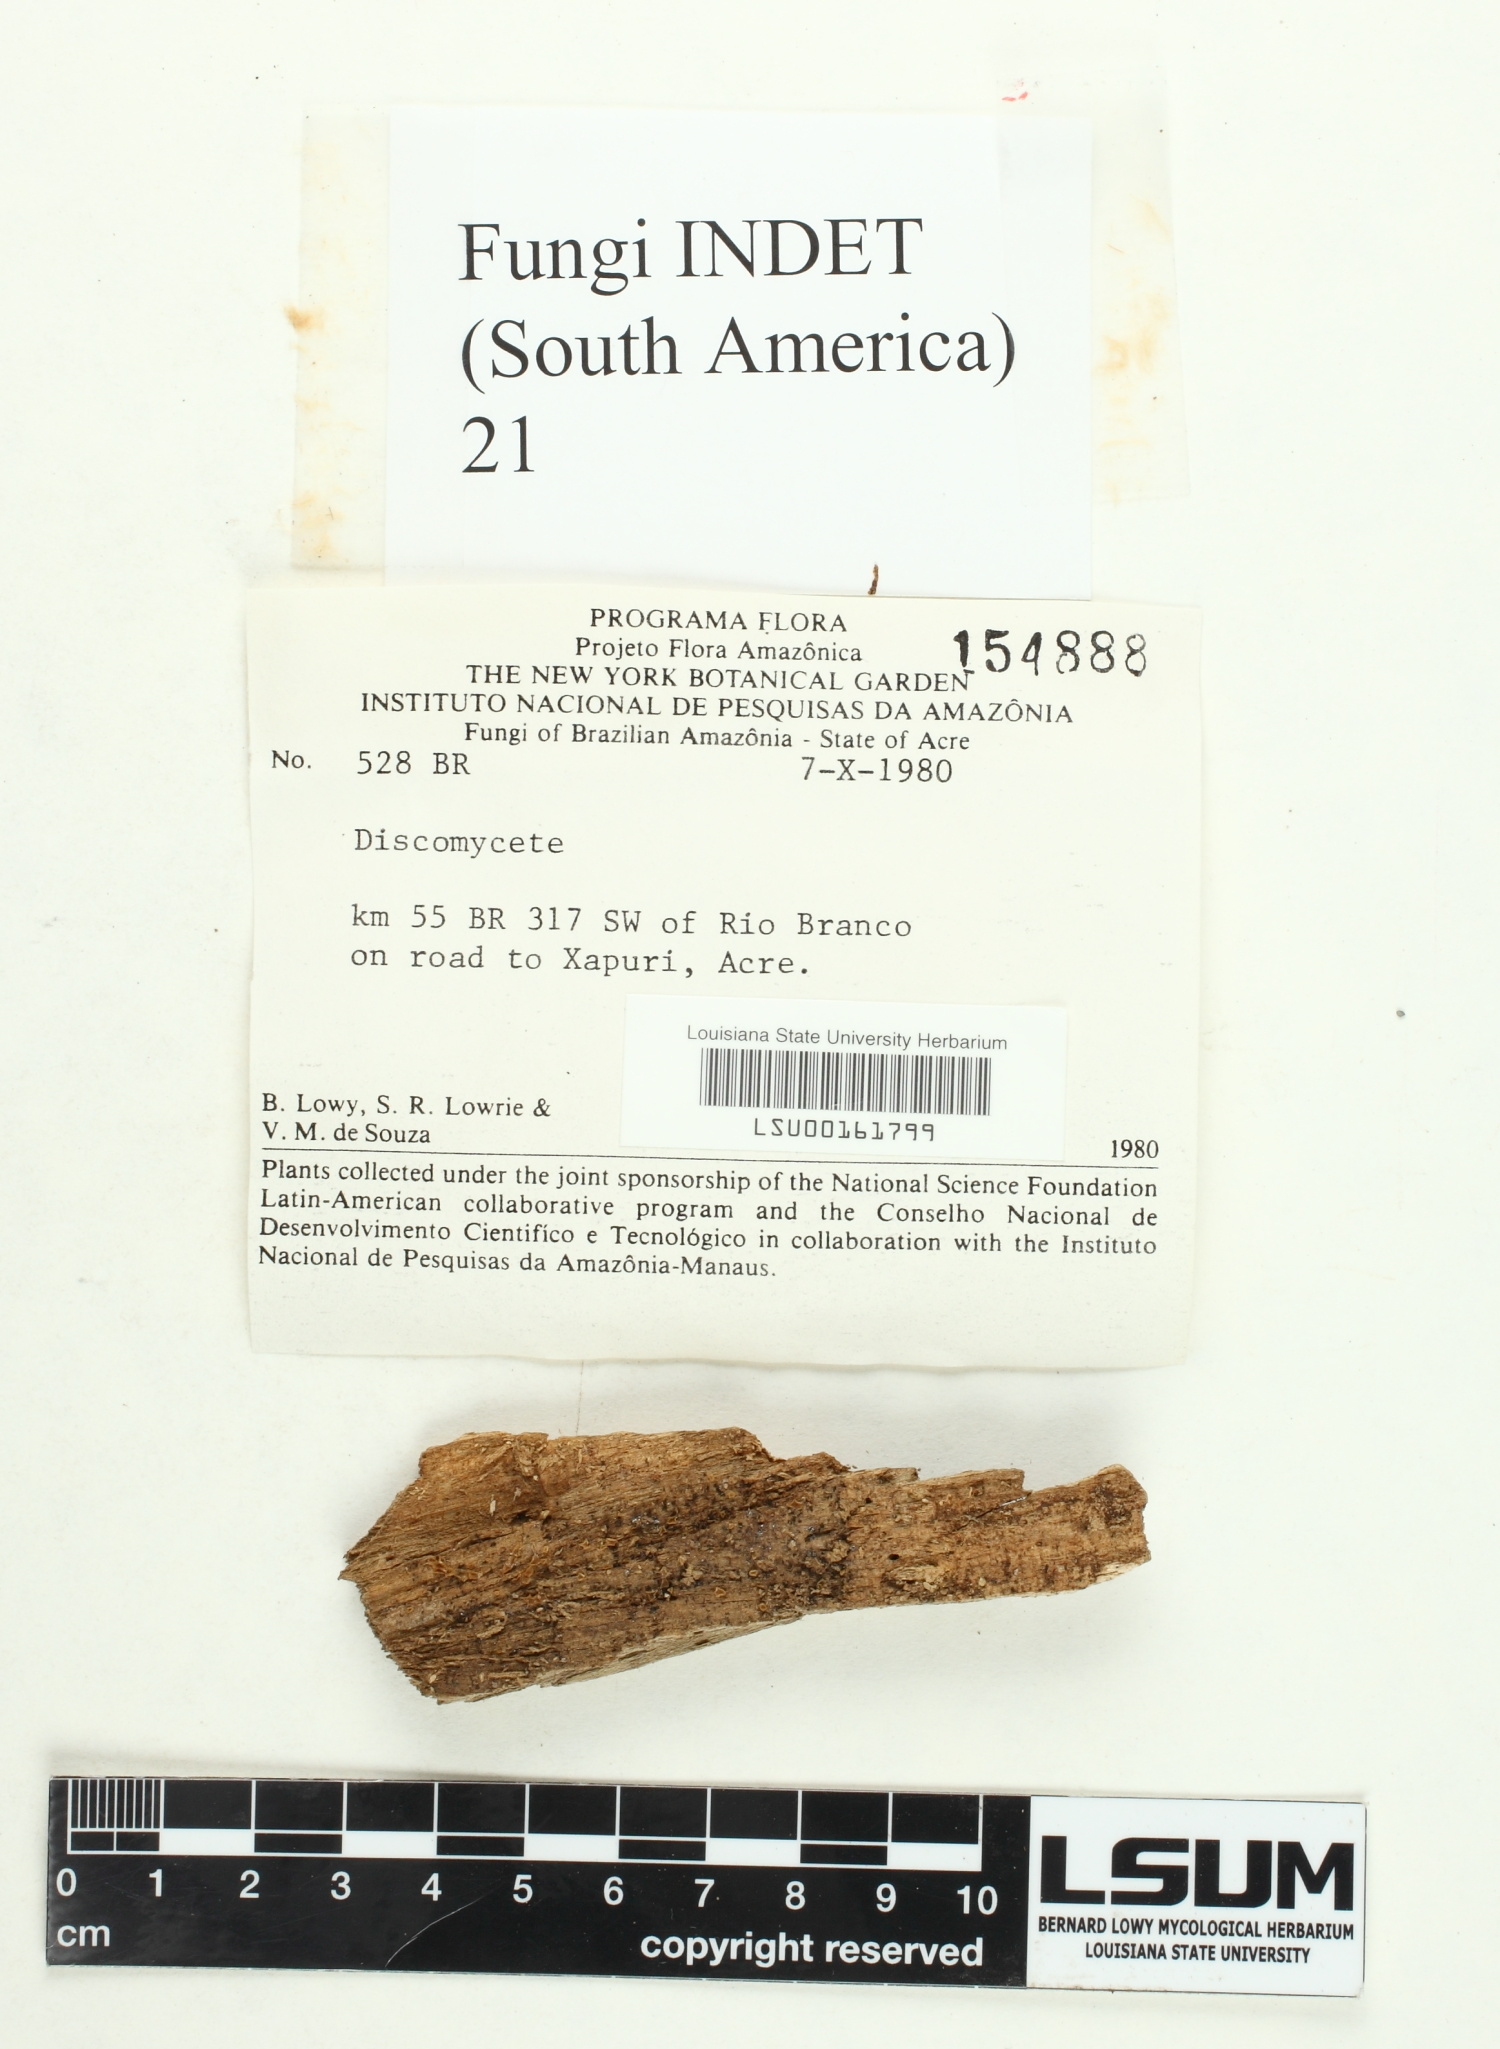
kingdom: Fungi
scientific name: Fungi
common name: Fungi
